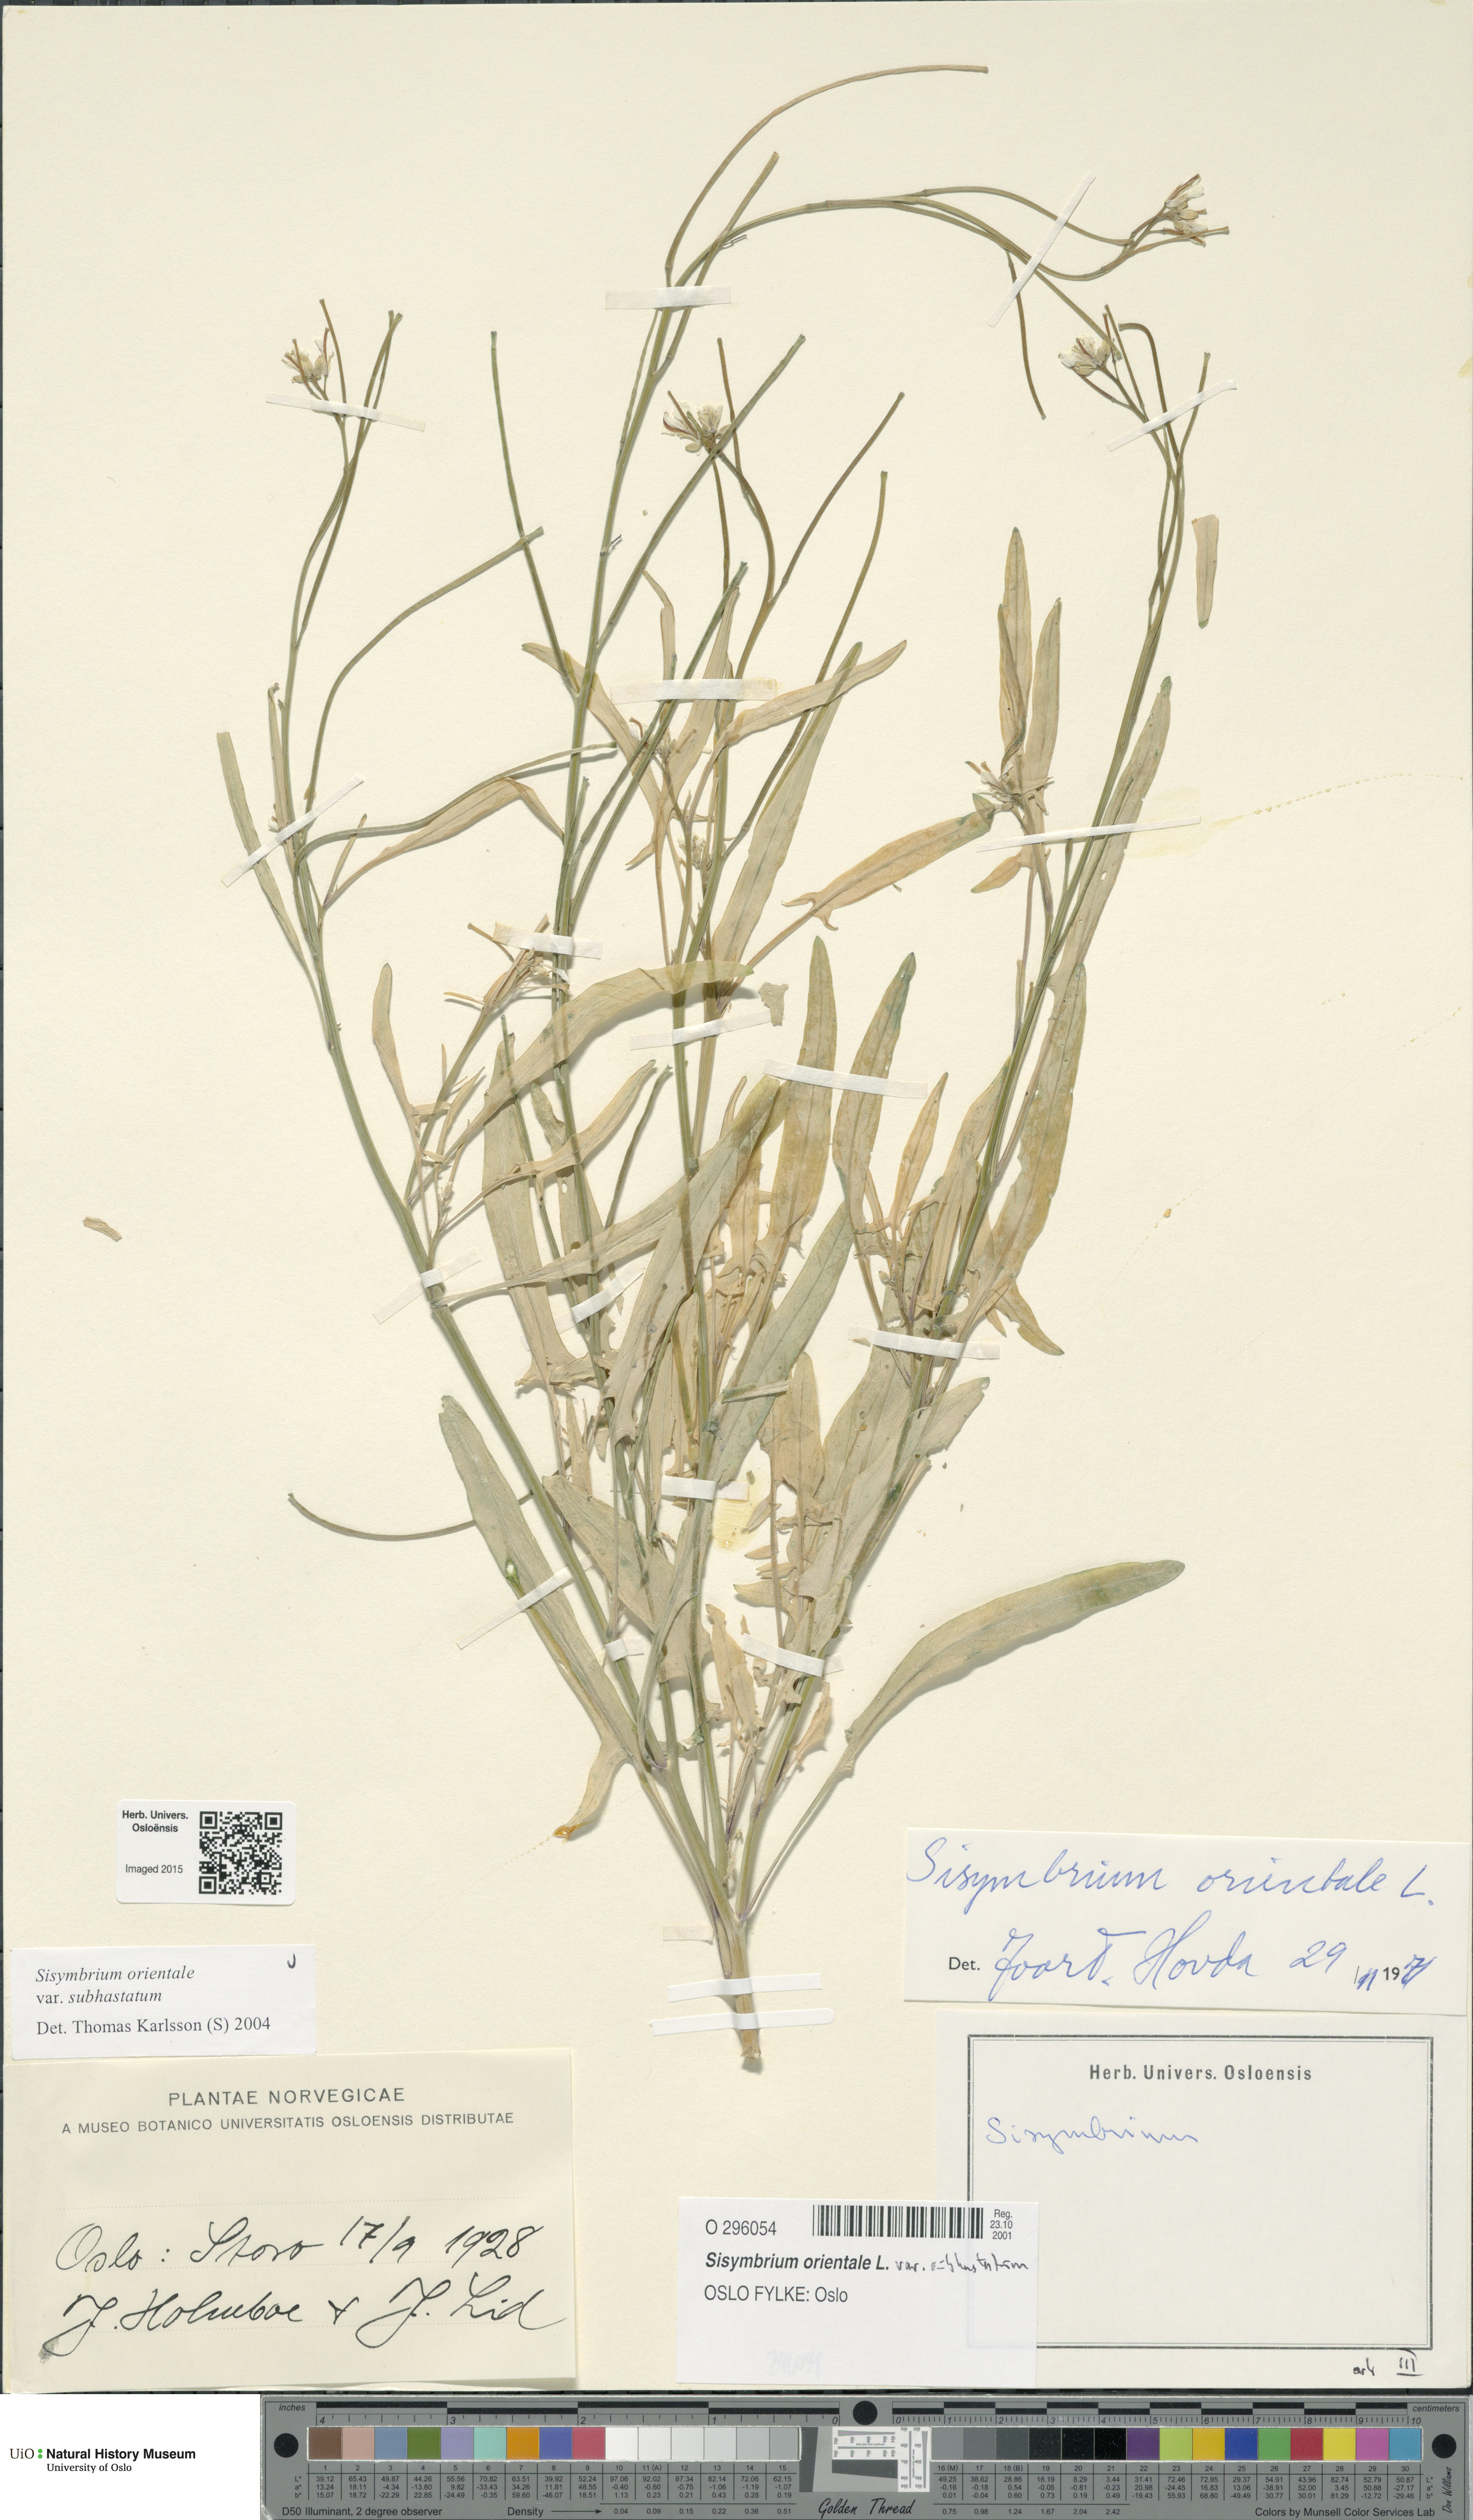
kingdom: Plantae
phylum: Tracheophyta
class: Magnoliopsida
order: Brassicales
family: Brassicaceae
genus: Sisymbrium
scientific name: Sisymbrium orientale
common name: Eastern rocket
